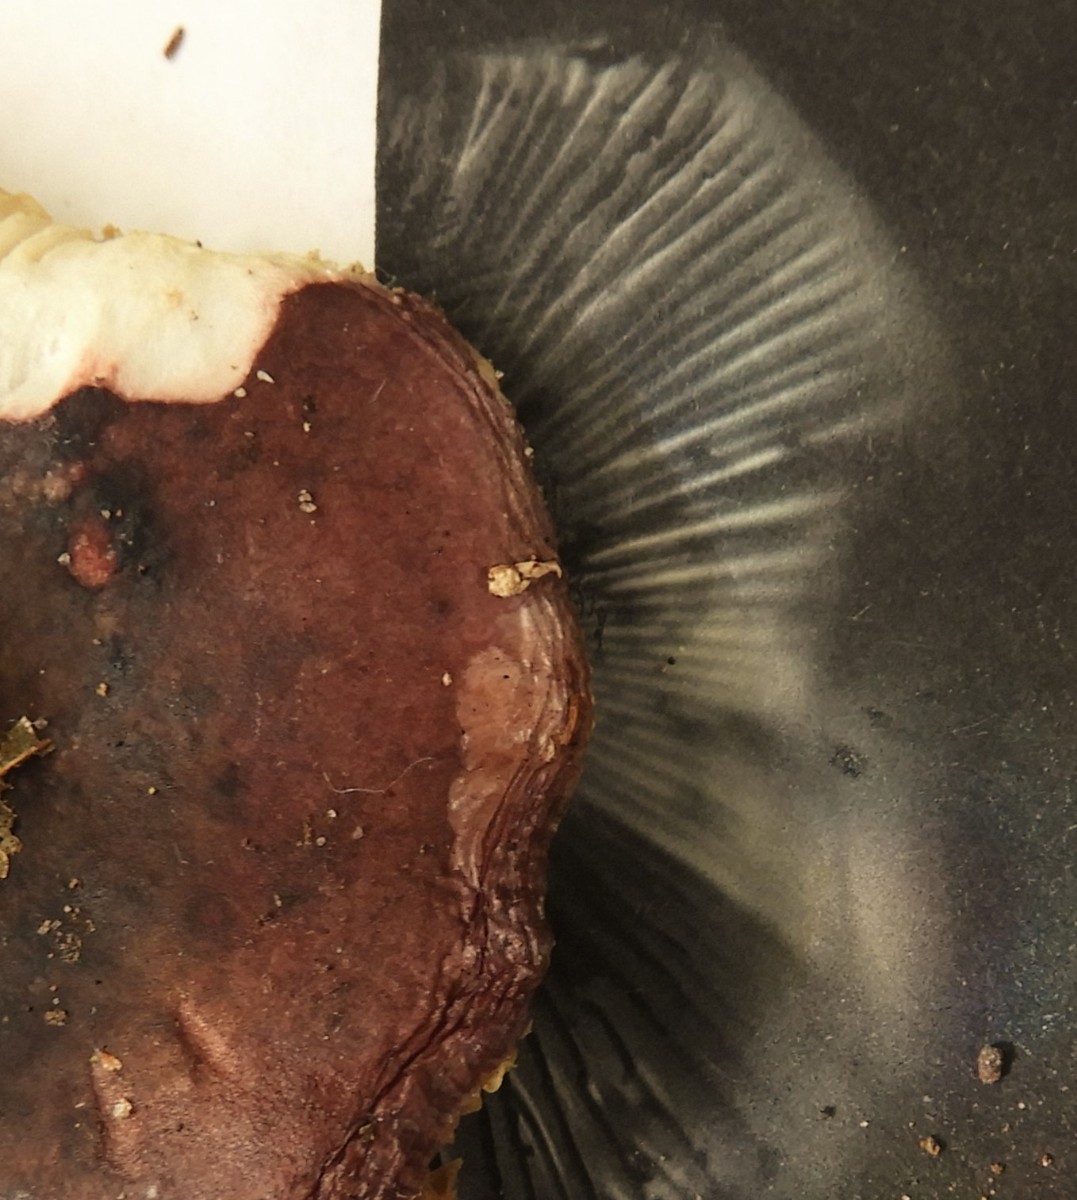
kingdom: Fungi
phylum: Basidiomycota
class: Agaricomycetes
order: Russulales
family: Russulaceae
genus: Russula
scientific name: Russula queletii
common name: Quélets skørhat
